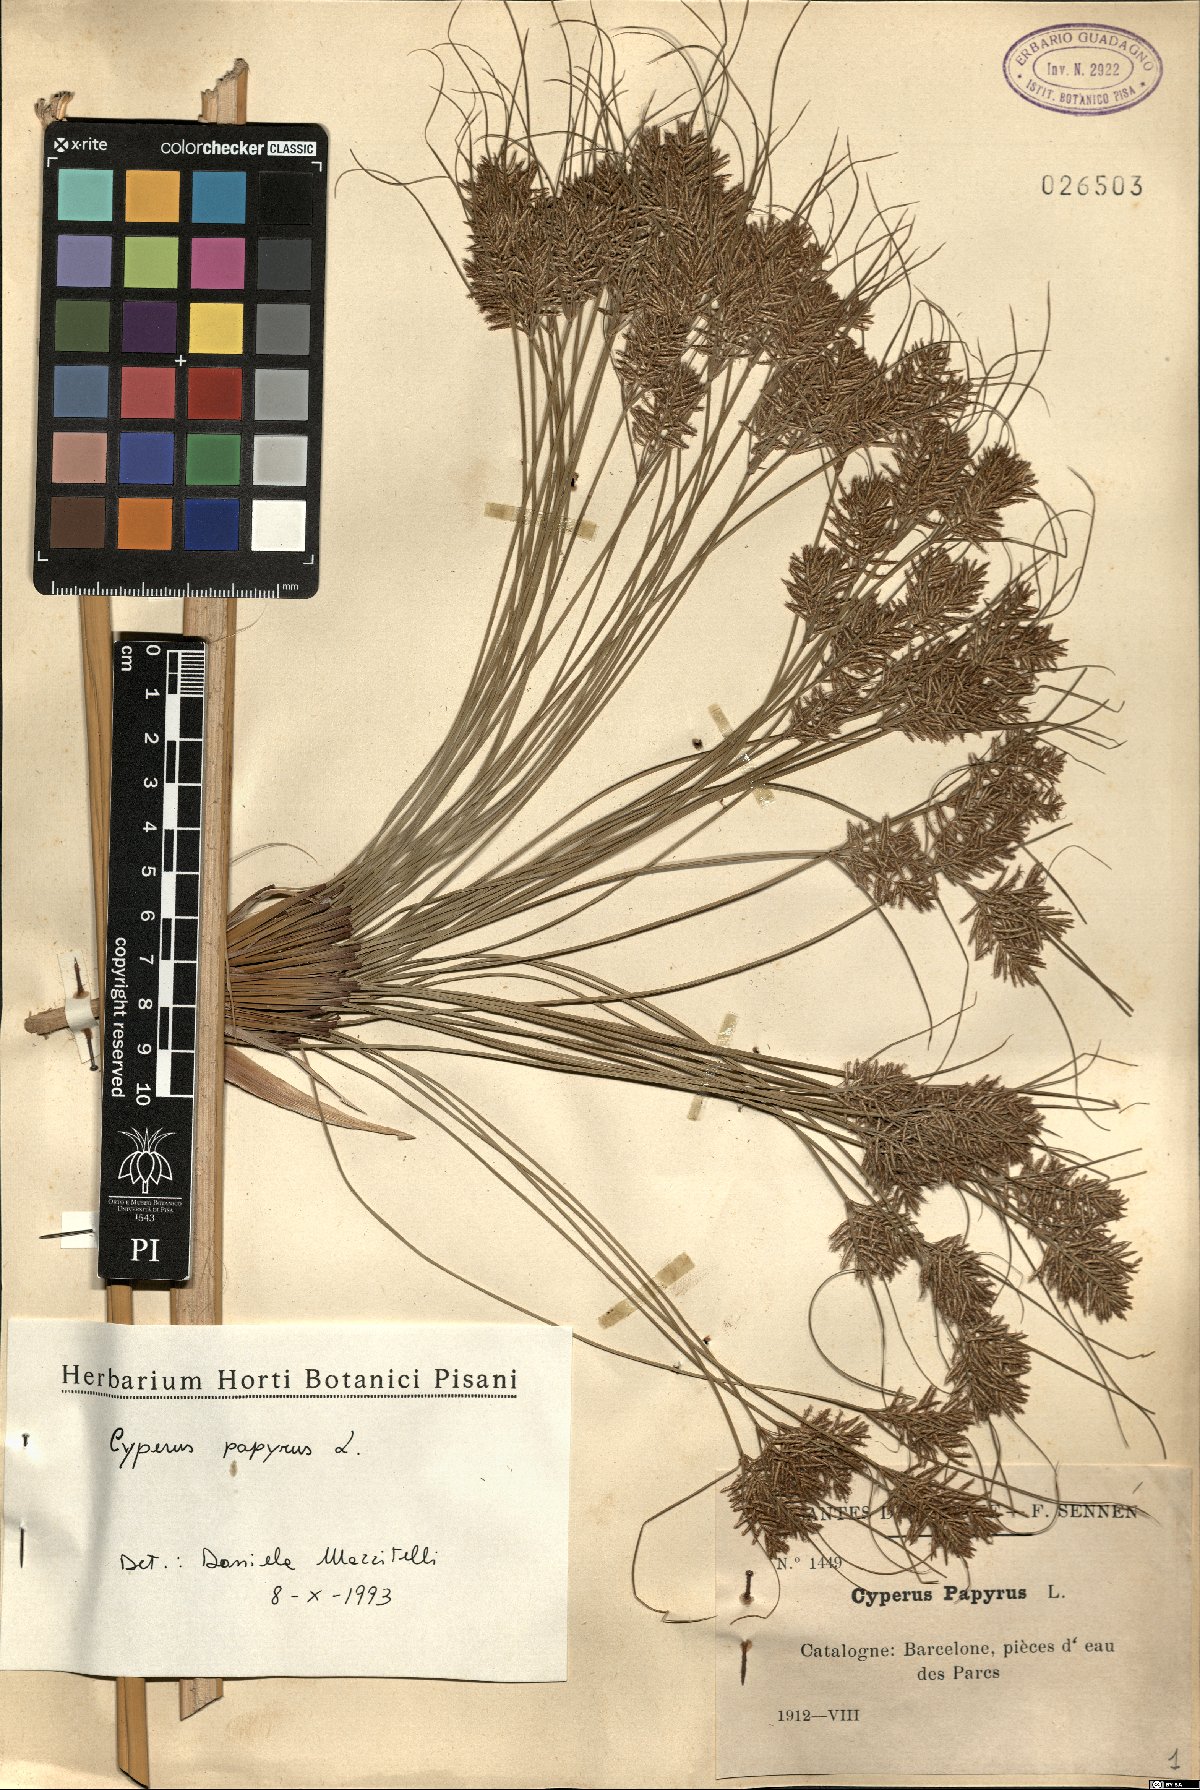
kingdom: Plantae
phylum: Tracheophyta
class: Liliopsida
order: Poales
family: Cyperaceae
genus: Cyperus
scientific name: Cyperus papyrus
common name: Papyrus
